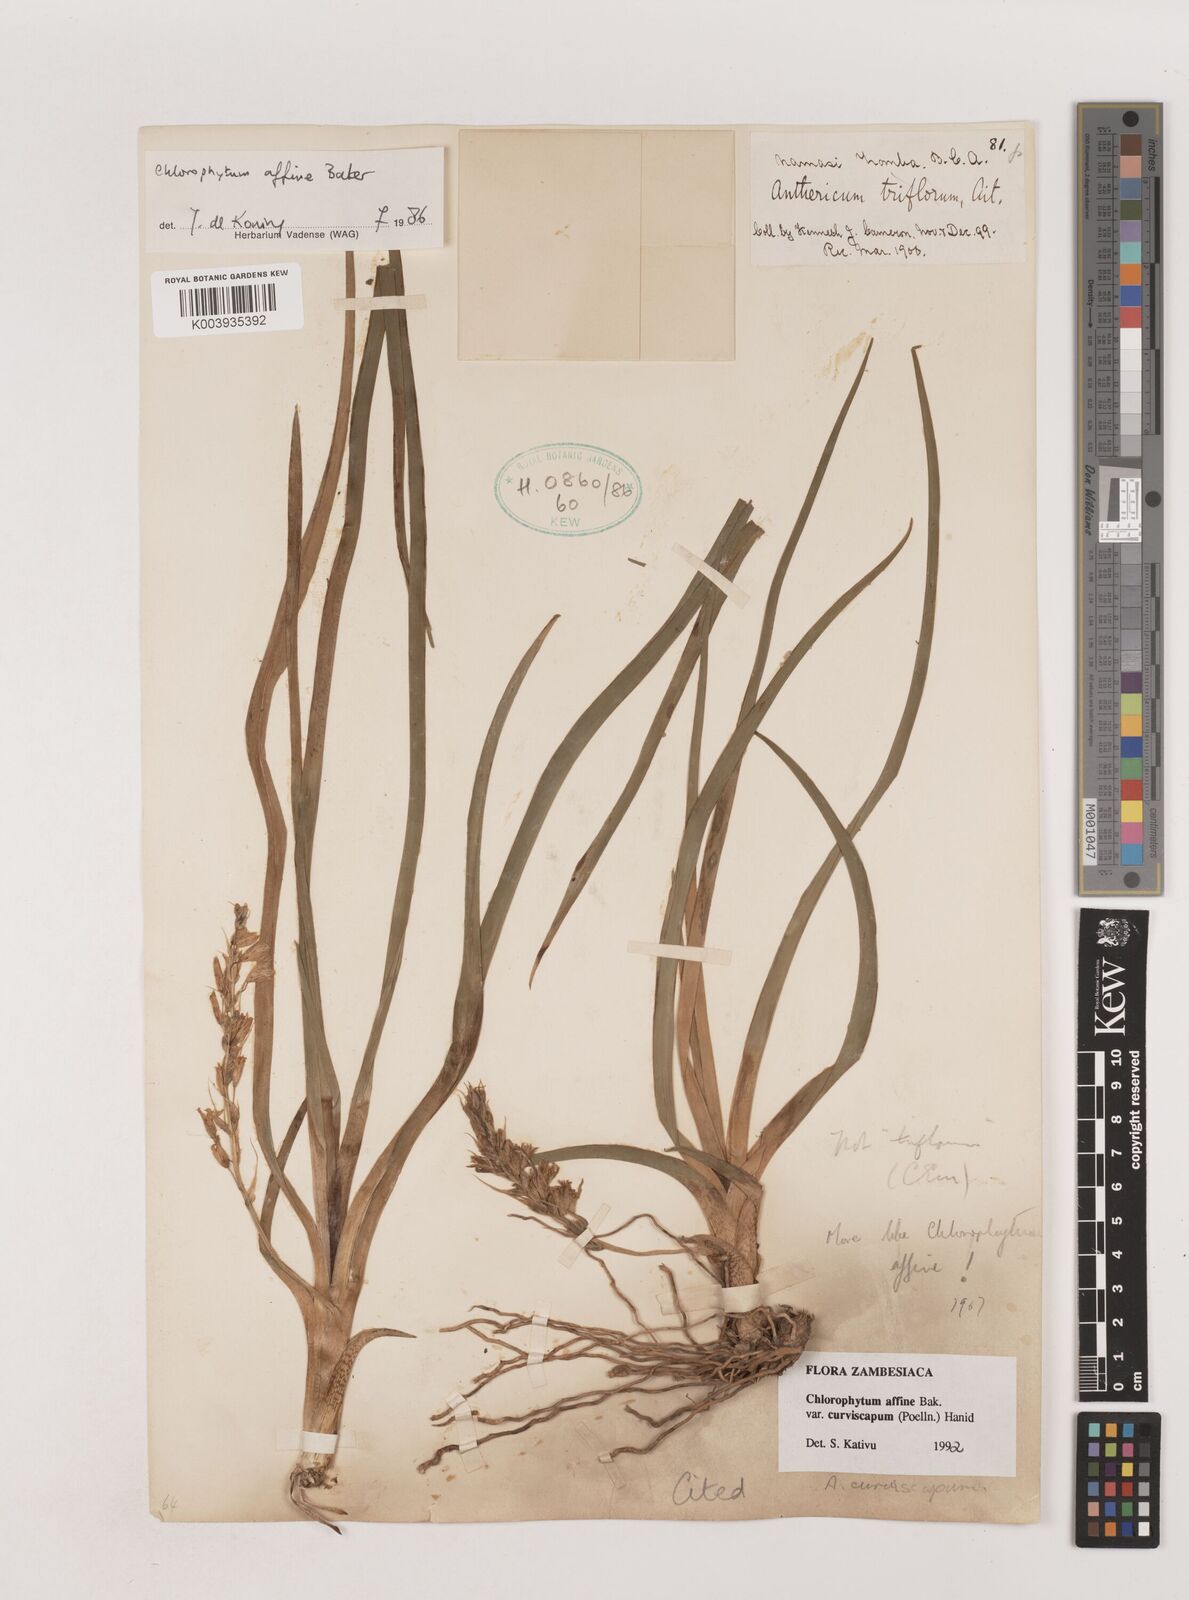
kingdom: Plantae
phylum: Tracheophyta
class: Liliopsida
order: Asparagales
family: Asparagaceae
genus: Chlorophytum
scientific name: Chlorophytum tordense
